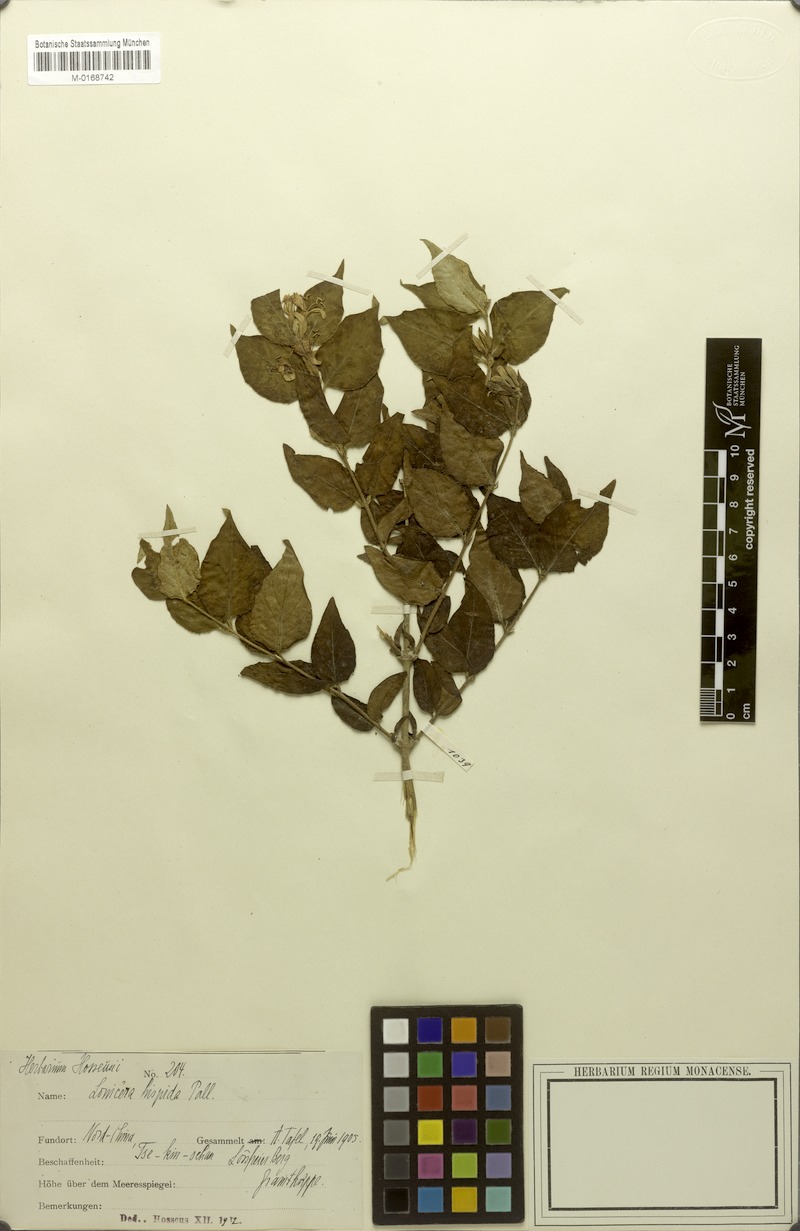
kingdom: Plantae
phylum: Tracheophyta
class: Magnoliopsida
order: Dipsacales
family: Caprifoliaceae
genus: Lonicera
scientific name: Lonicera hispida
